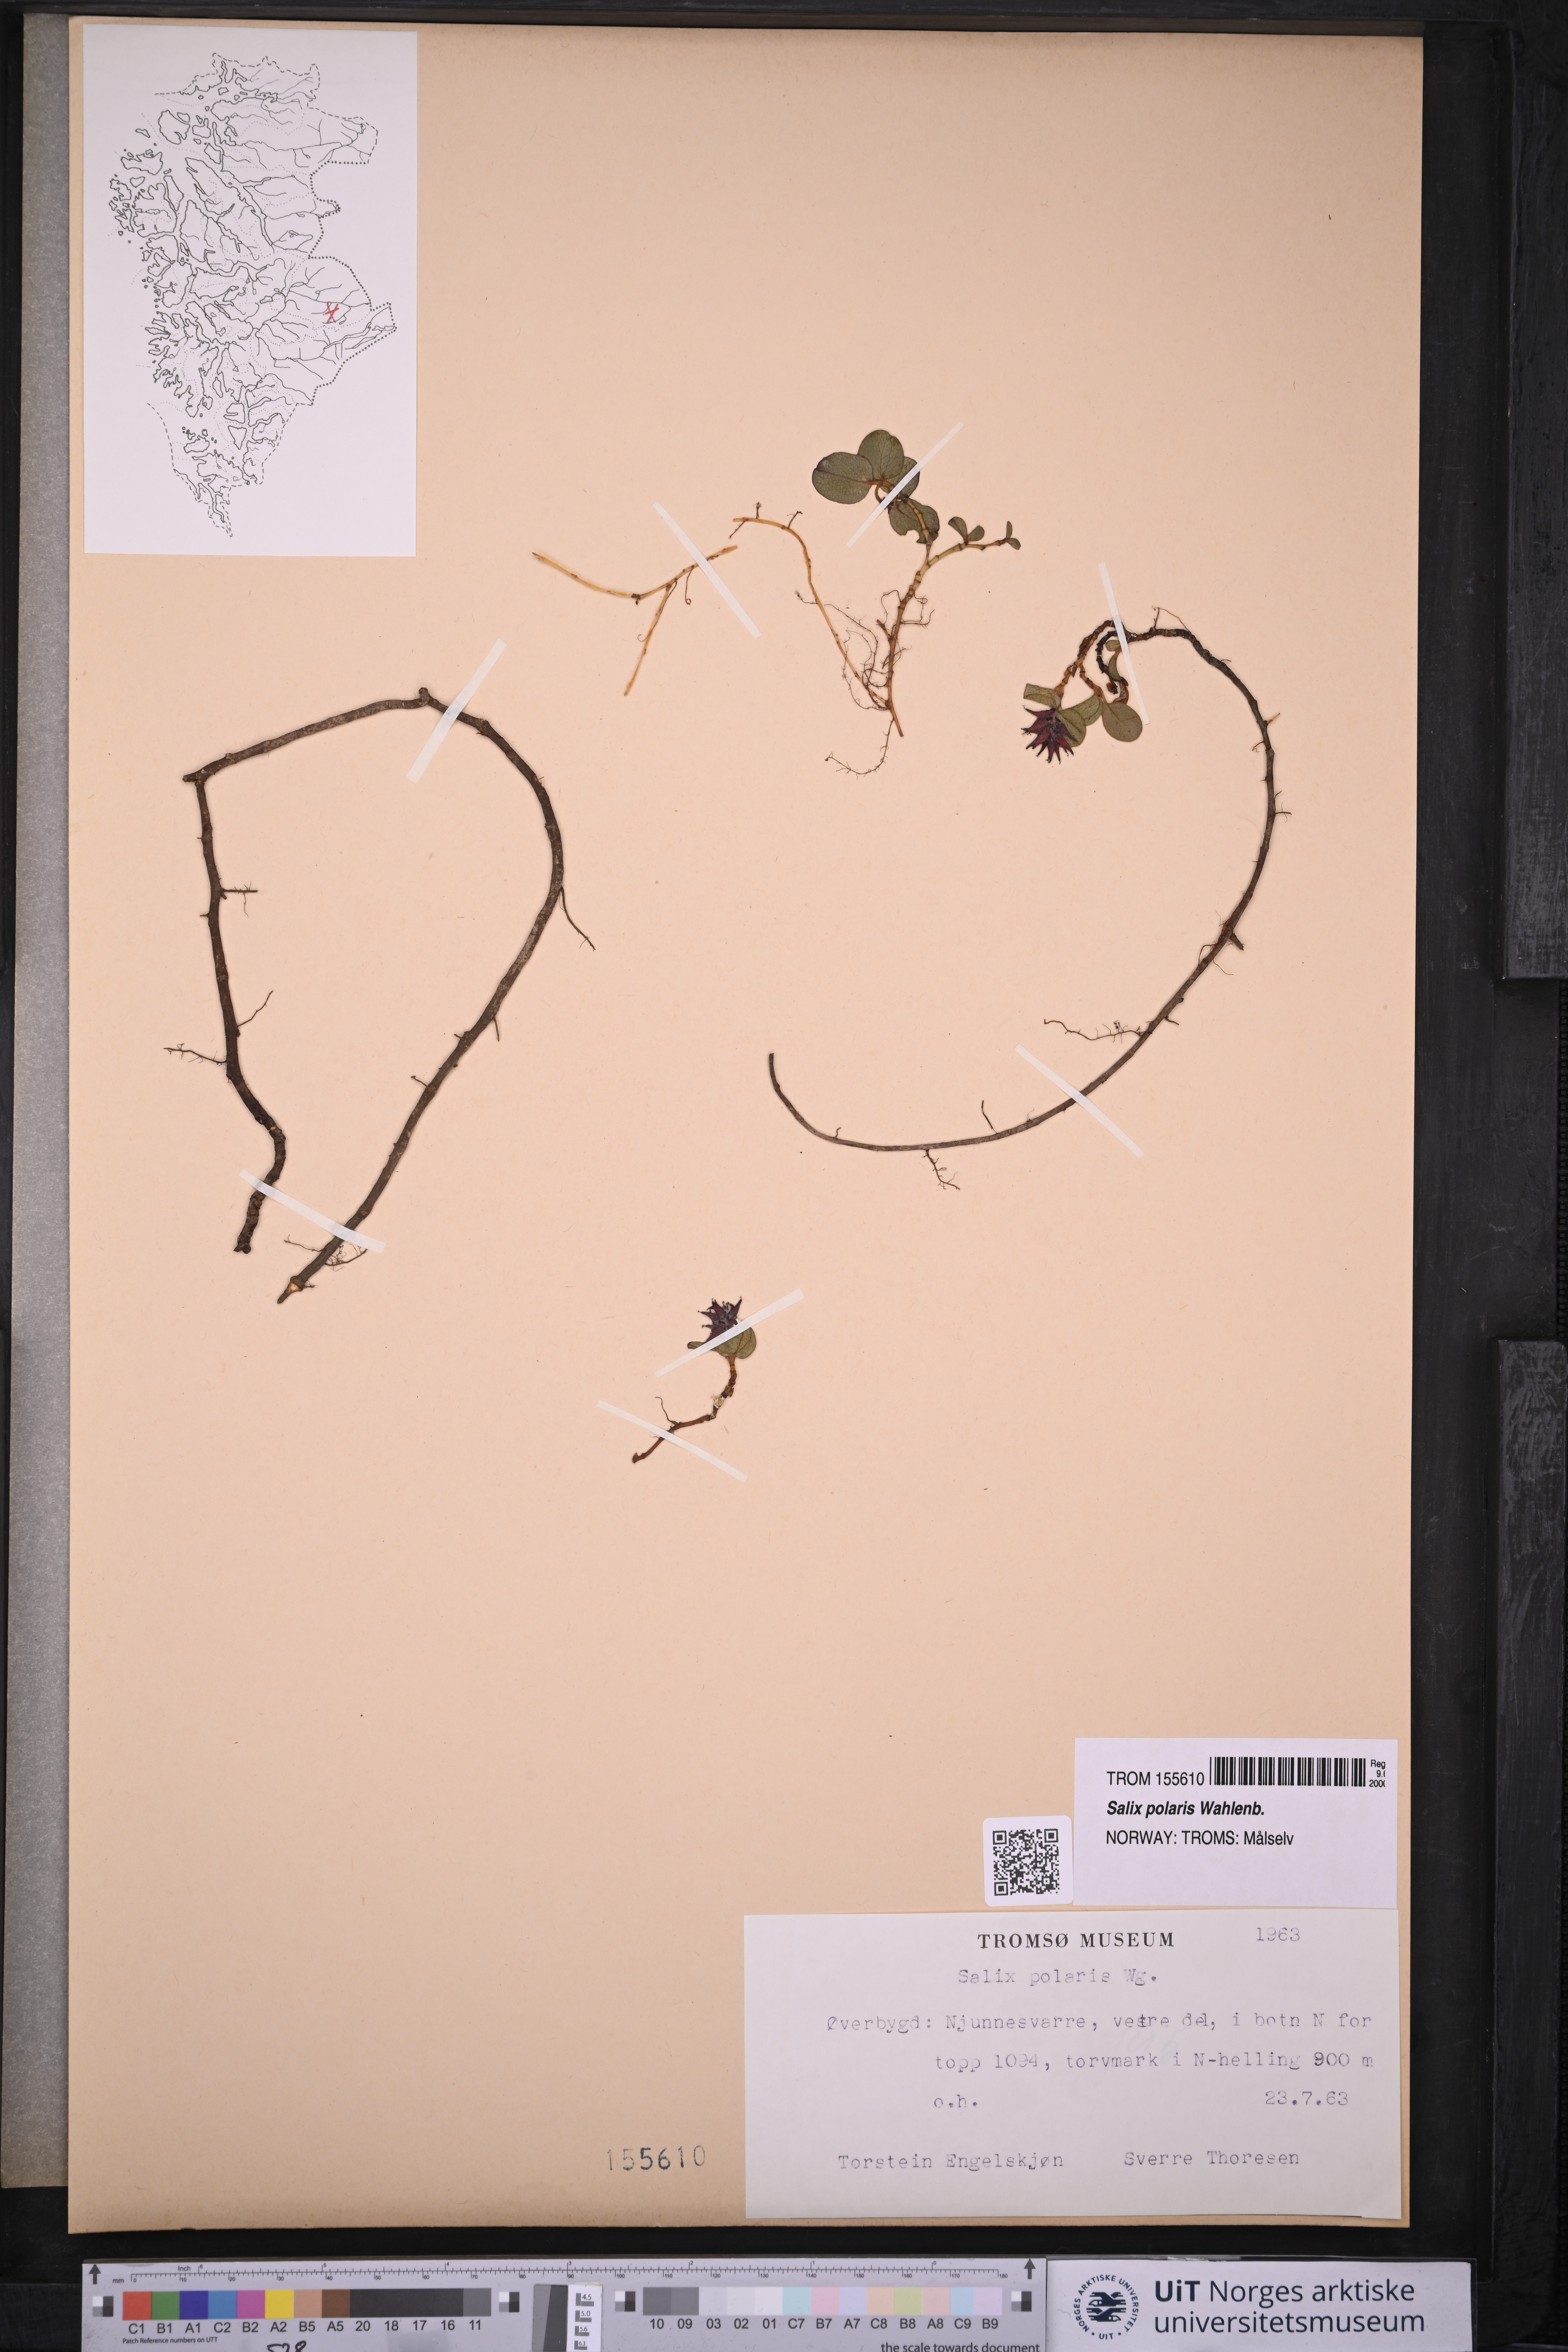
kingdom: Plantae
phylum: Tracheophyta
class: Magnoliopsida
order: Malpighiales
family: Salicaceae
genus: Salix
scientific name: Salix polaris
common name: Polar willow
